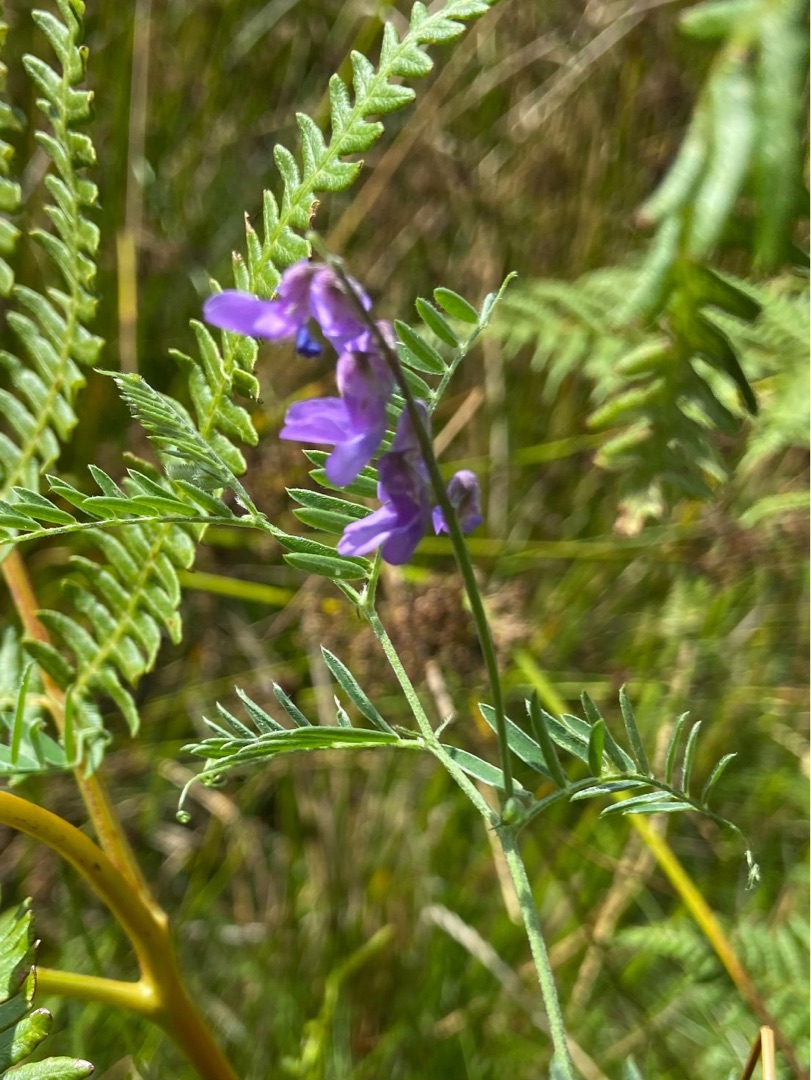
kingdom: Plantae
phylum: Tracheophyta
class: Magnoliopsida
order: Fabales
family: Fabaceae
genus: Vicia
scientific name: Vicia cracca
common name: Muse-vikke
